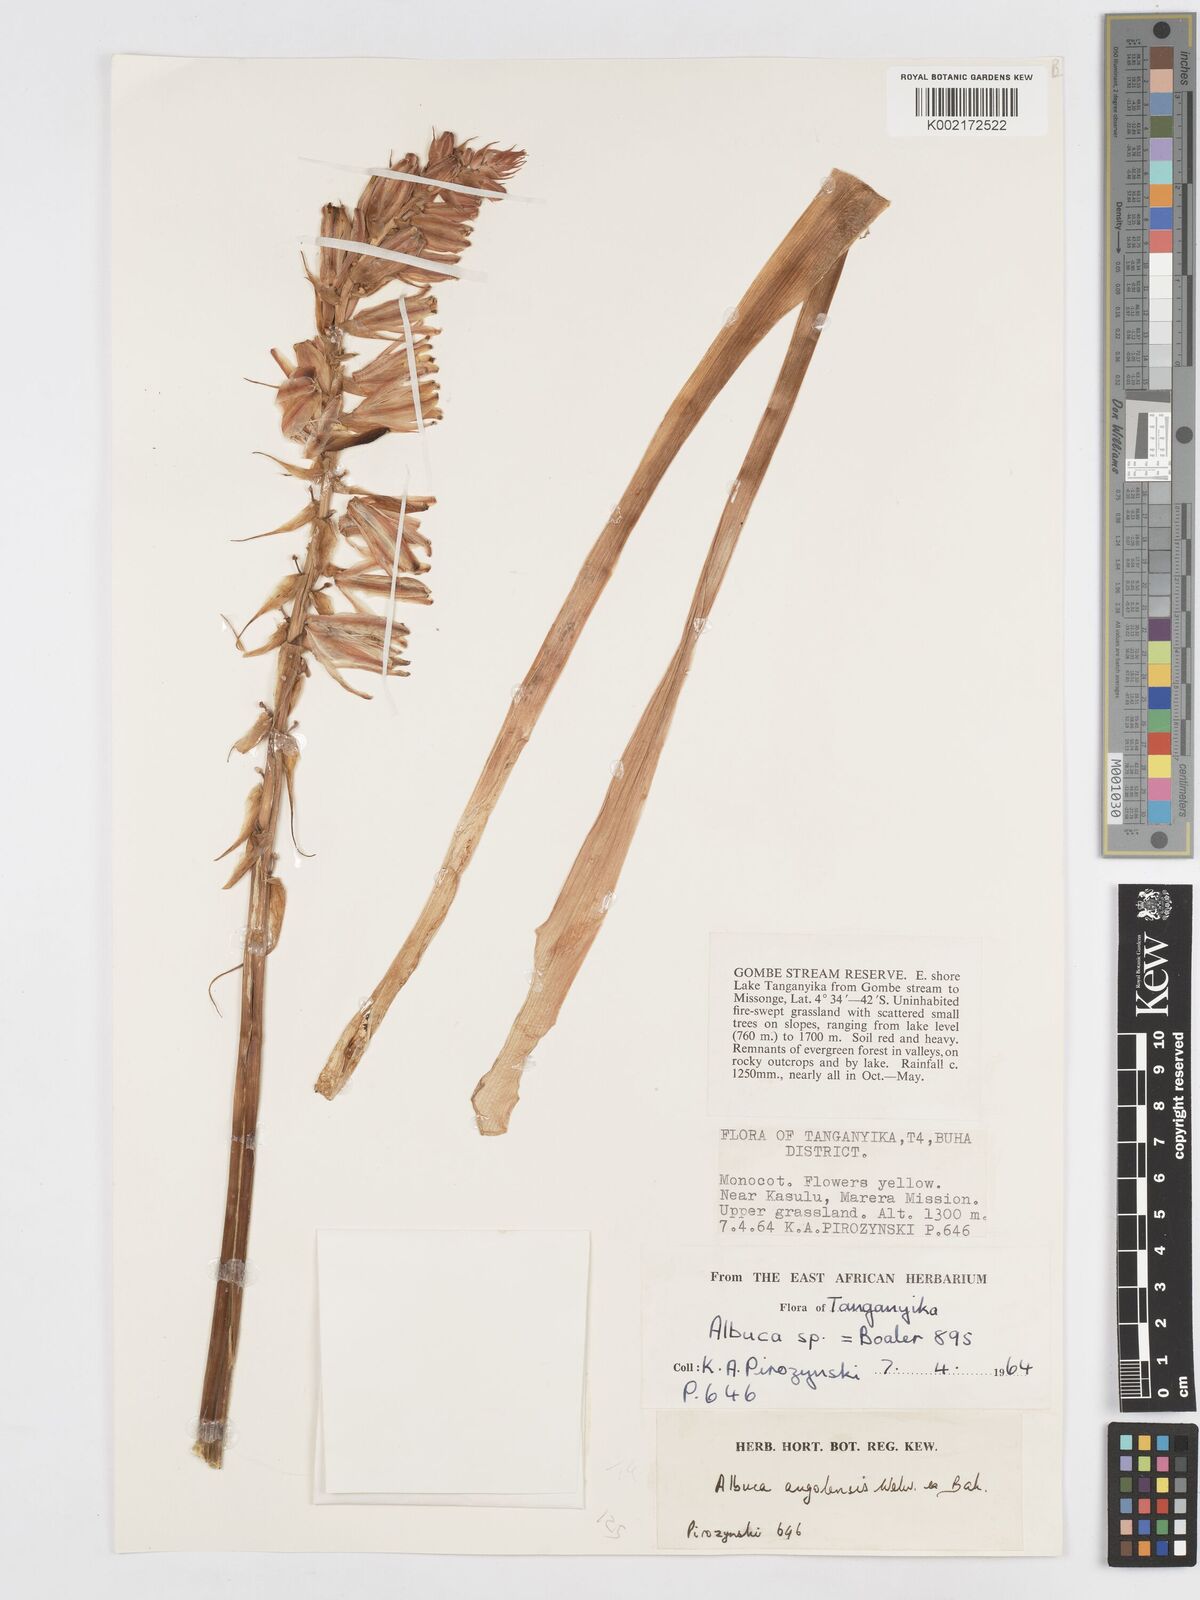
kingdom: Plantae
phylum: Tracheophyta
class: Liliopsida
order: Asparagales
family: Asparagaceae
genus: Albuca
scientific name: Albuca abyssinica
